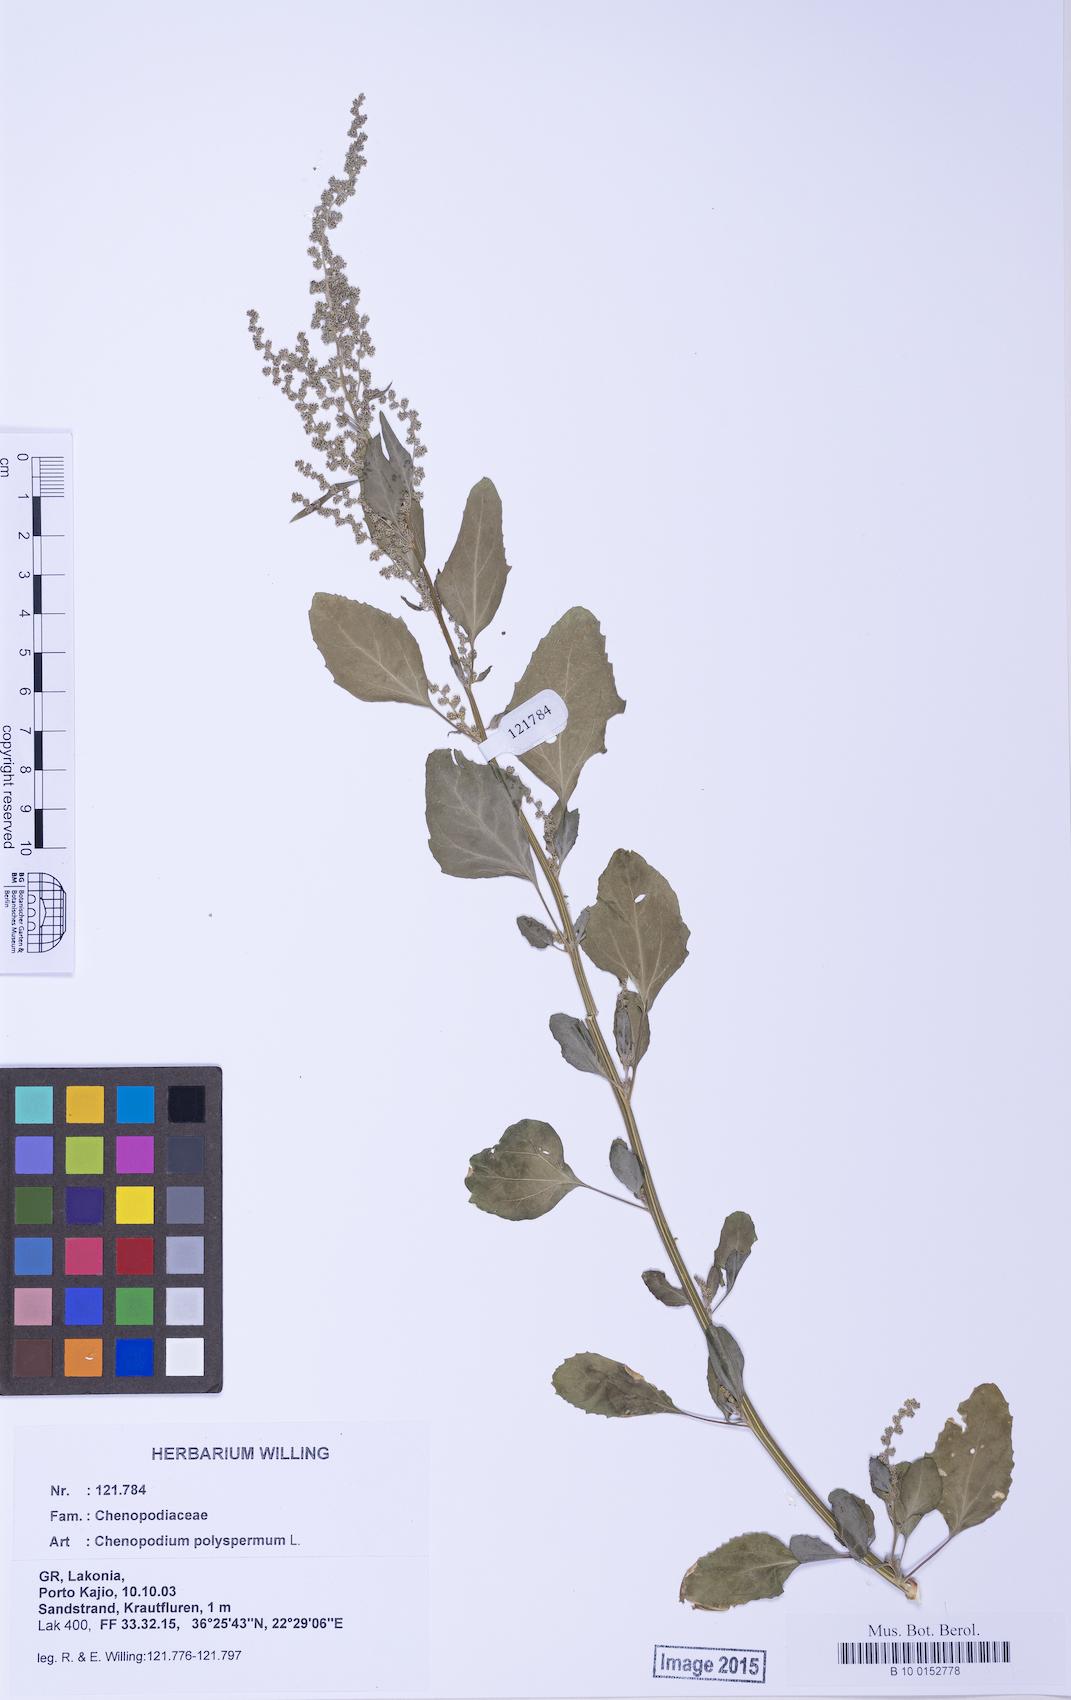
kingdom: Plantae
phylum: Tracheophyta
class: Magnoliopsida
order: Caryophyllales
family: Amaranthaceae
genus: Chenopodium
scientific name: Chenopodium betaceum
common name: Striped goosefoot
